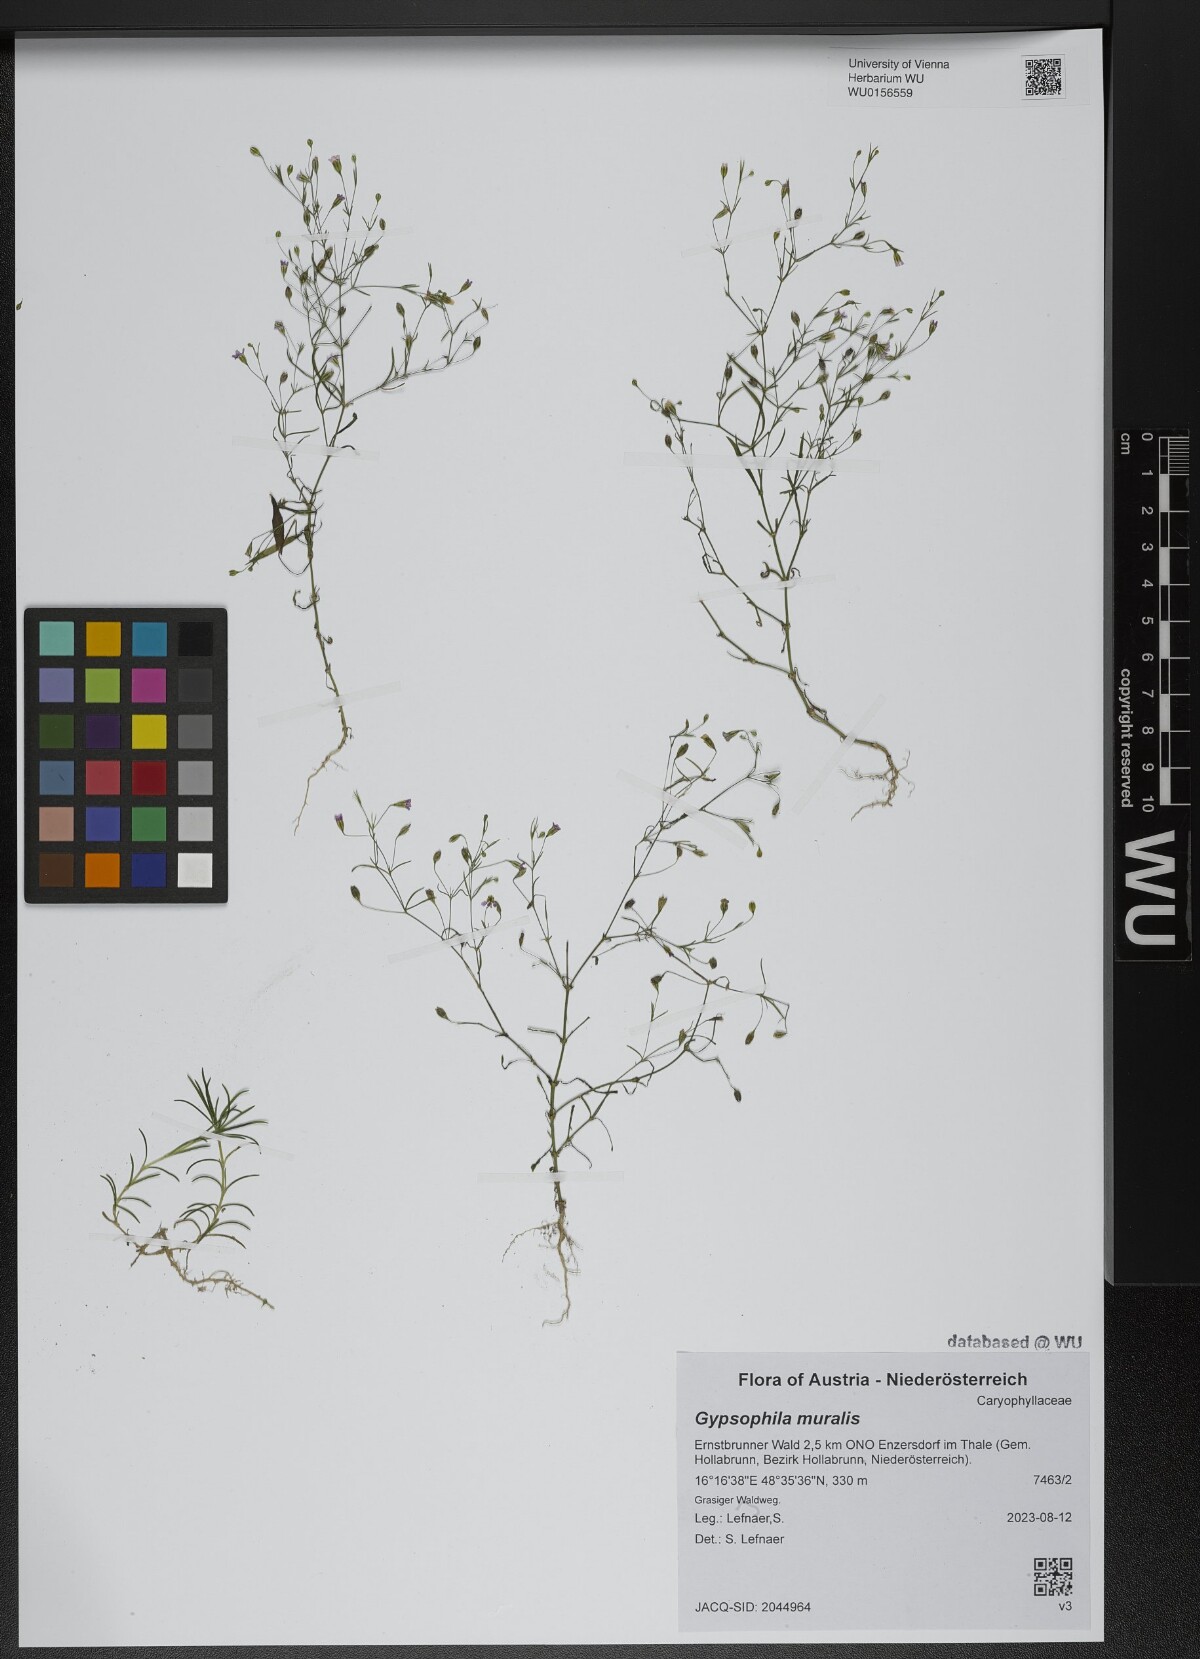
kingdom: Plantae
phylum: Tracheophyta
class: Magnoliopsida
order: Caryophyllales
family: Caryophyllaceae
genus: Psammophiliella
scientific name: Psammophiliella muralis
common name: Cushion baby's-breath
